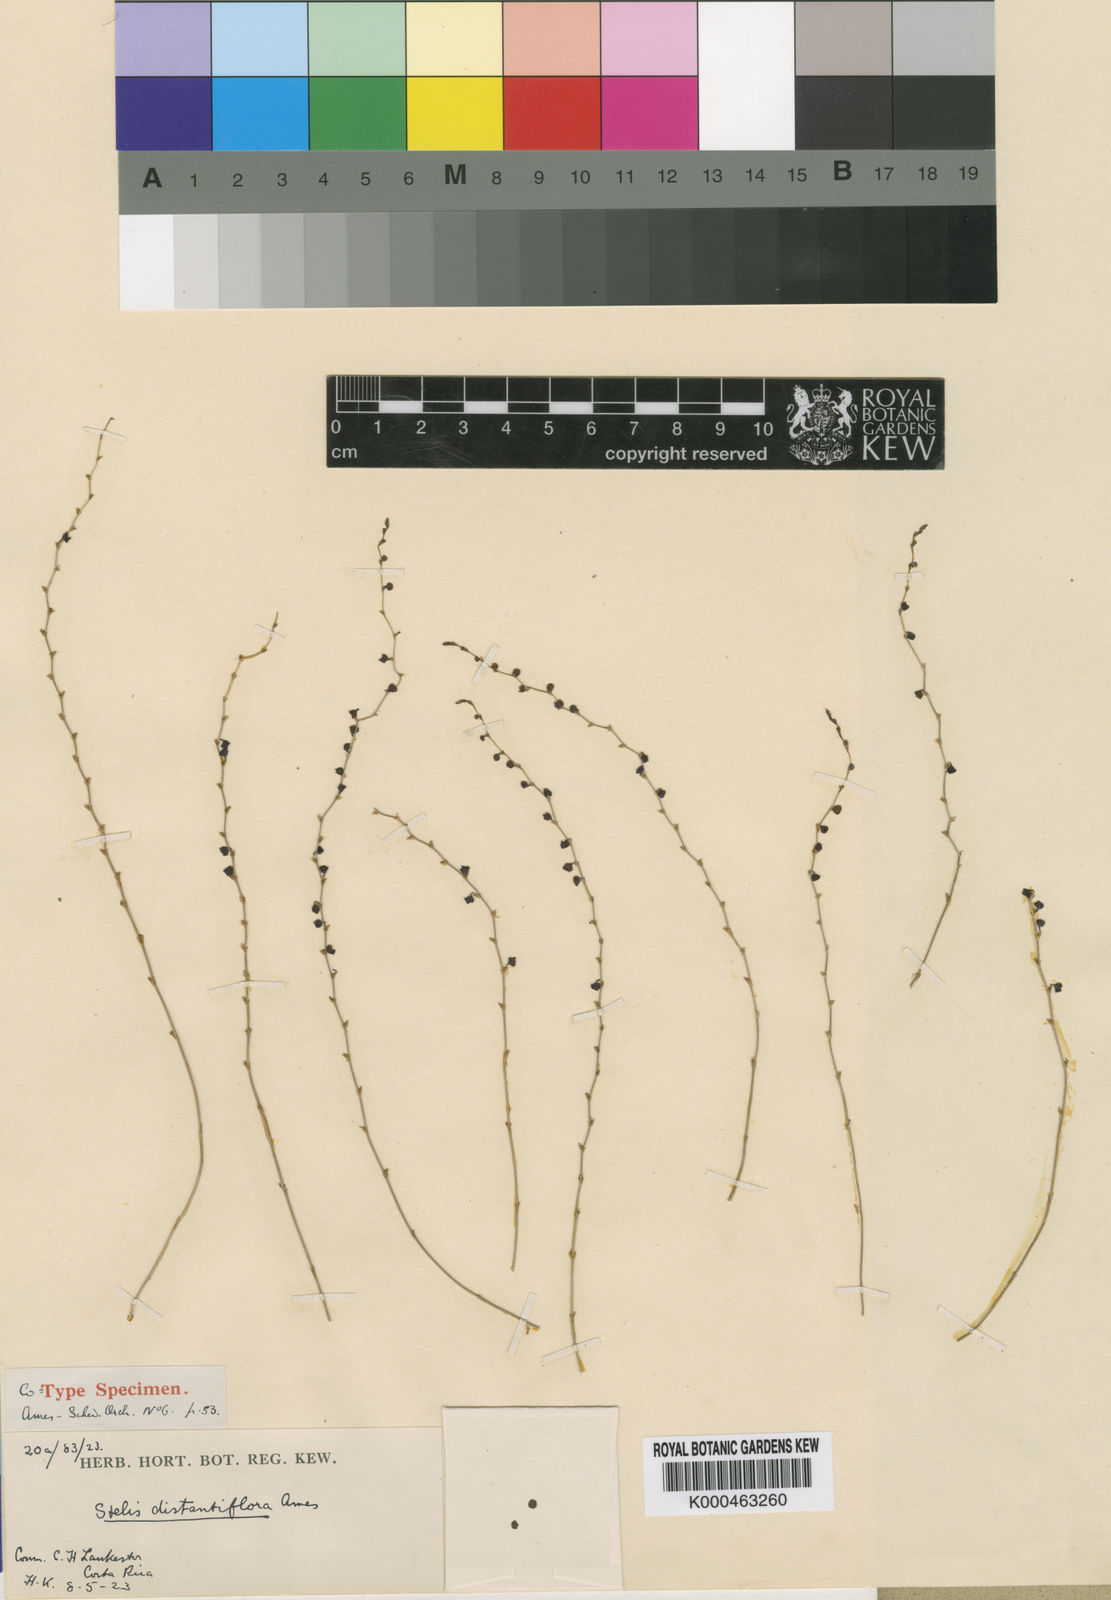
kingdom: Plantae
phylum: Tracheophyta
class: Liliopsida
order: Asparagales
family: Orchidaceae
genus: Stelis
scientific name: Stelis effusa
